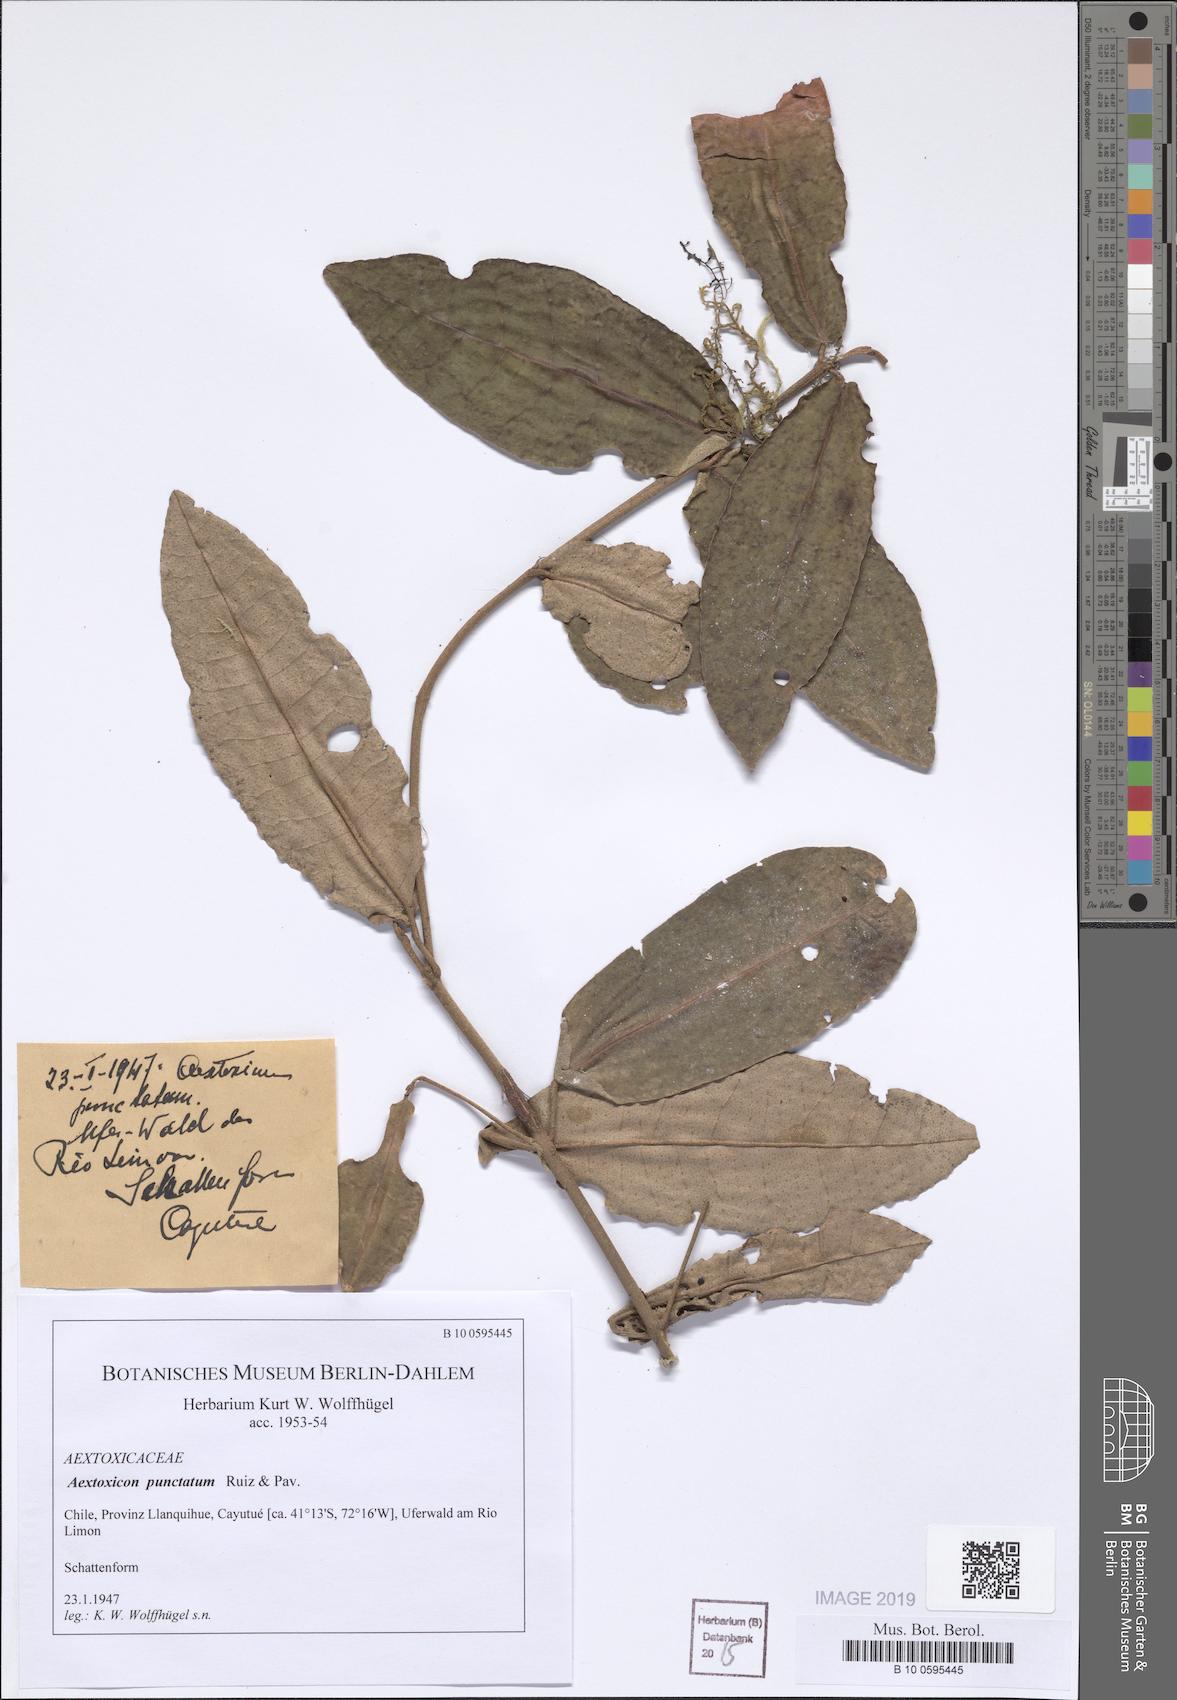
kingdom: Plantae
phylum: Tracheophyta
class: Magnoliopsida
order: Berberidopsidales
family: Aextoxicaceae
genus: Aextoxicon
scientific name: Aextoxicon punctatum
